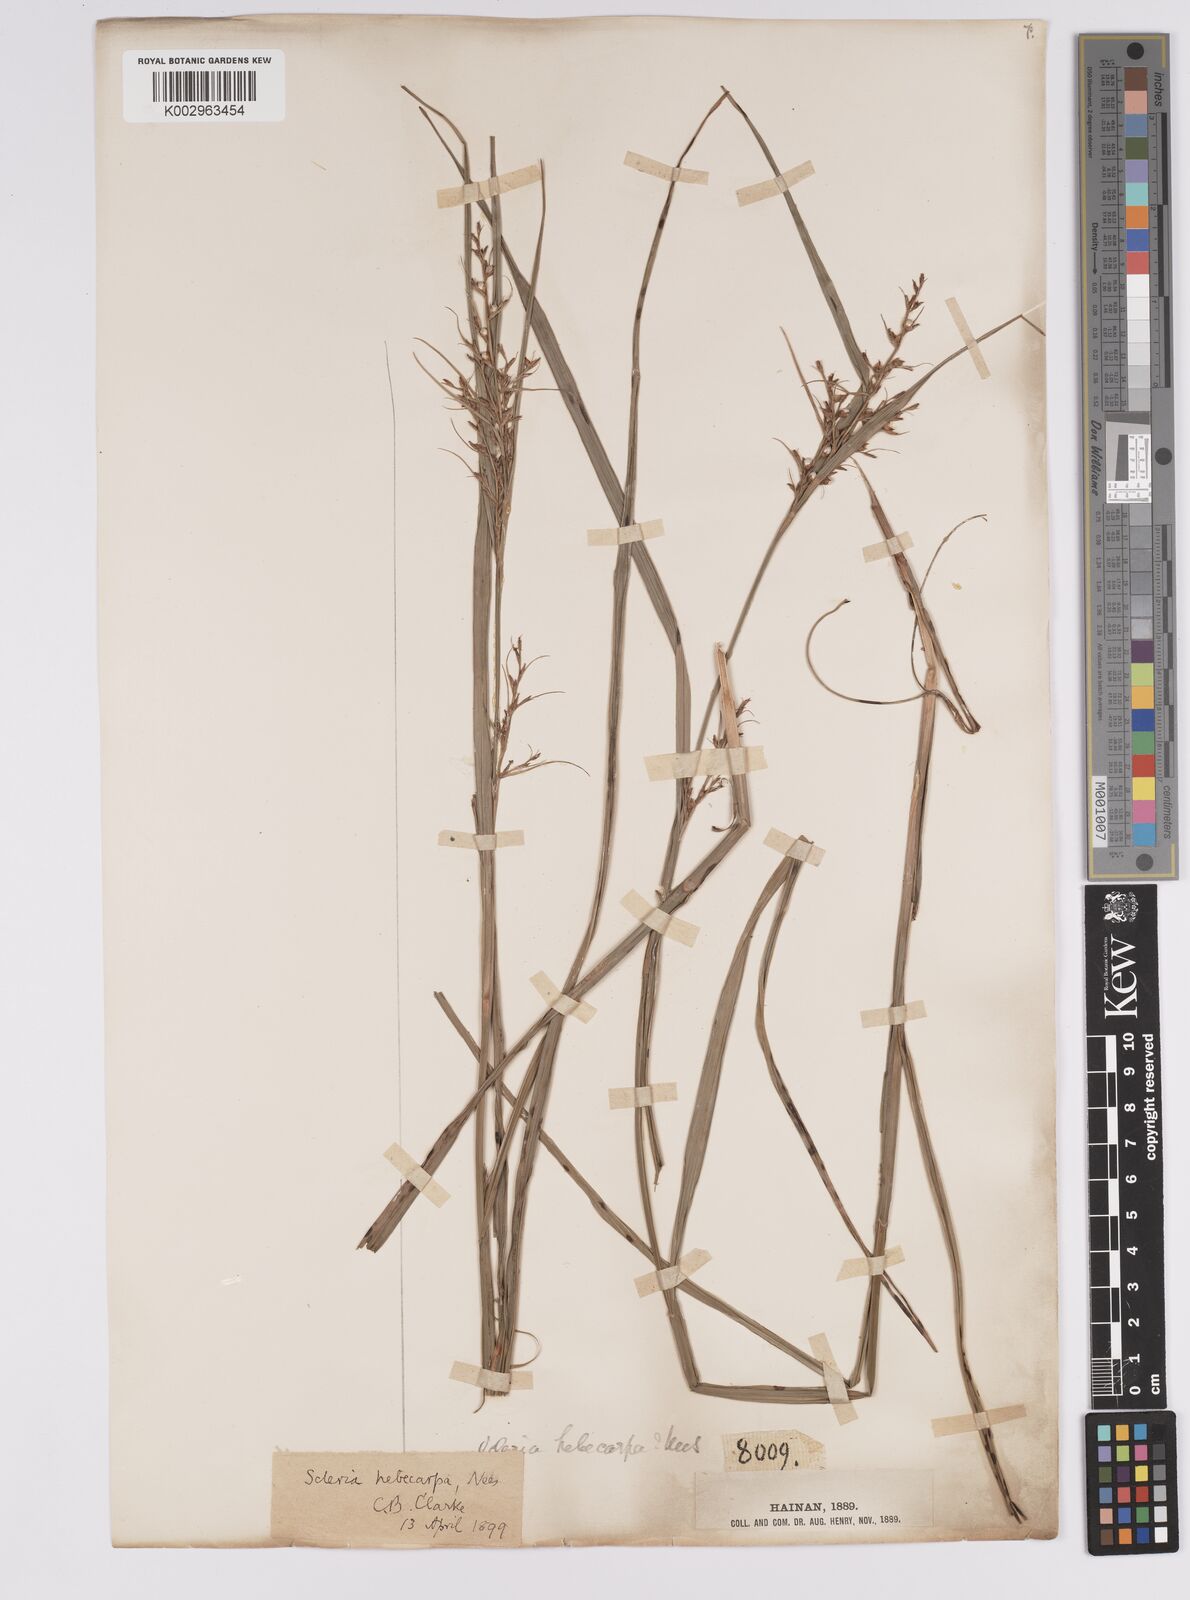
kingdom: Plantae
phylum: Tracheophyta
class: Liliopsida
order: Poales
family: Cyperaceae
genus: Scleria
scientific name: Scleria levis
